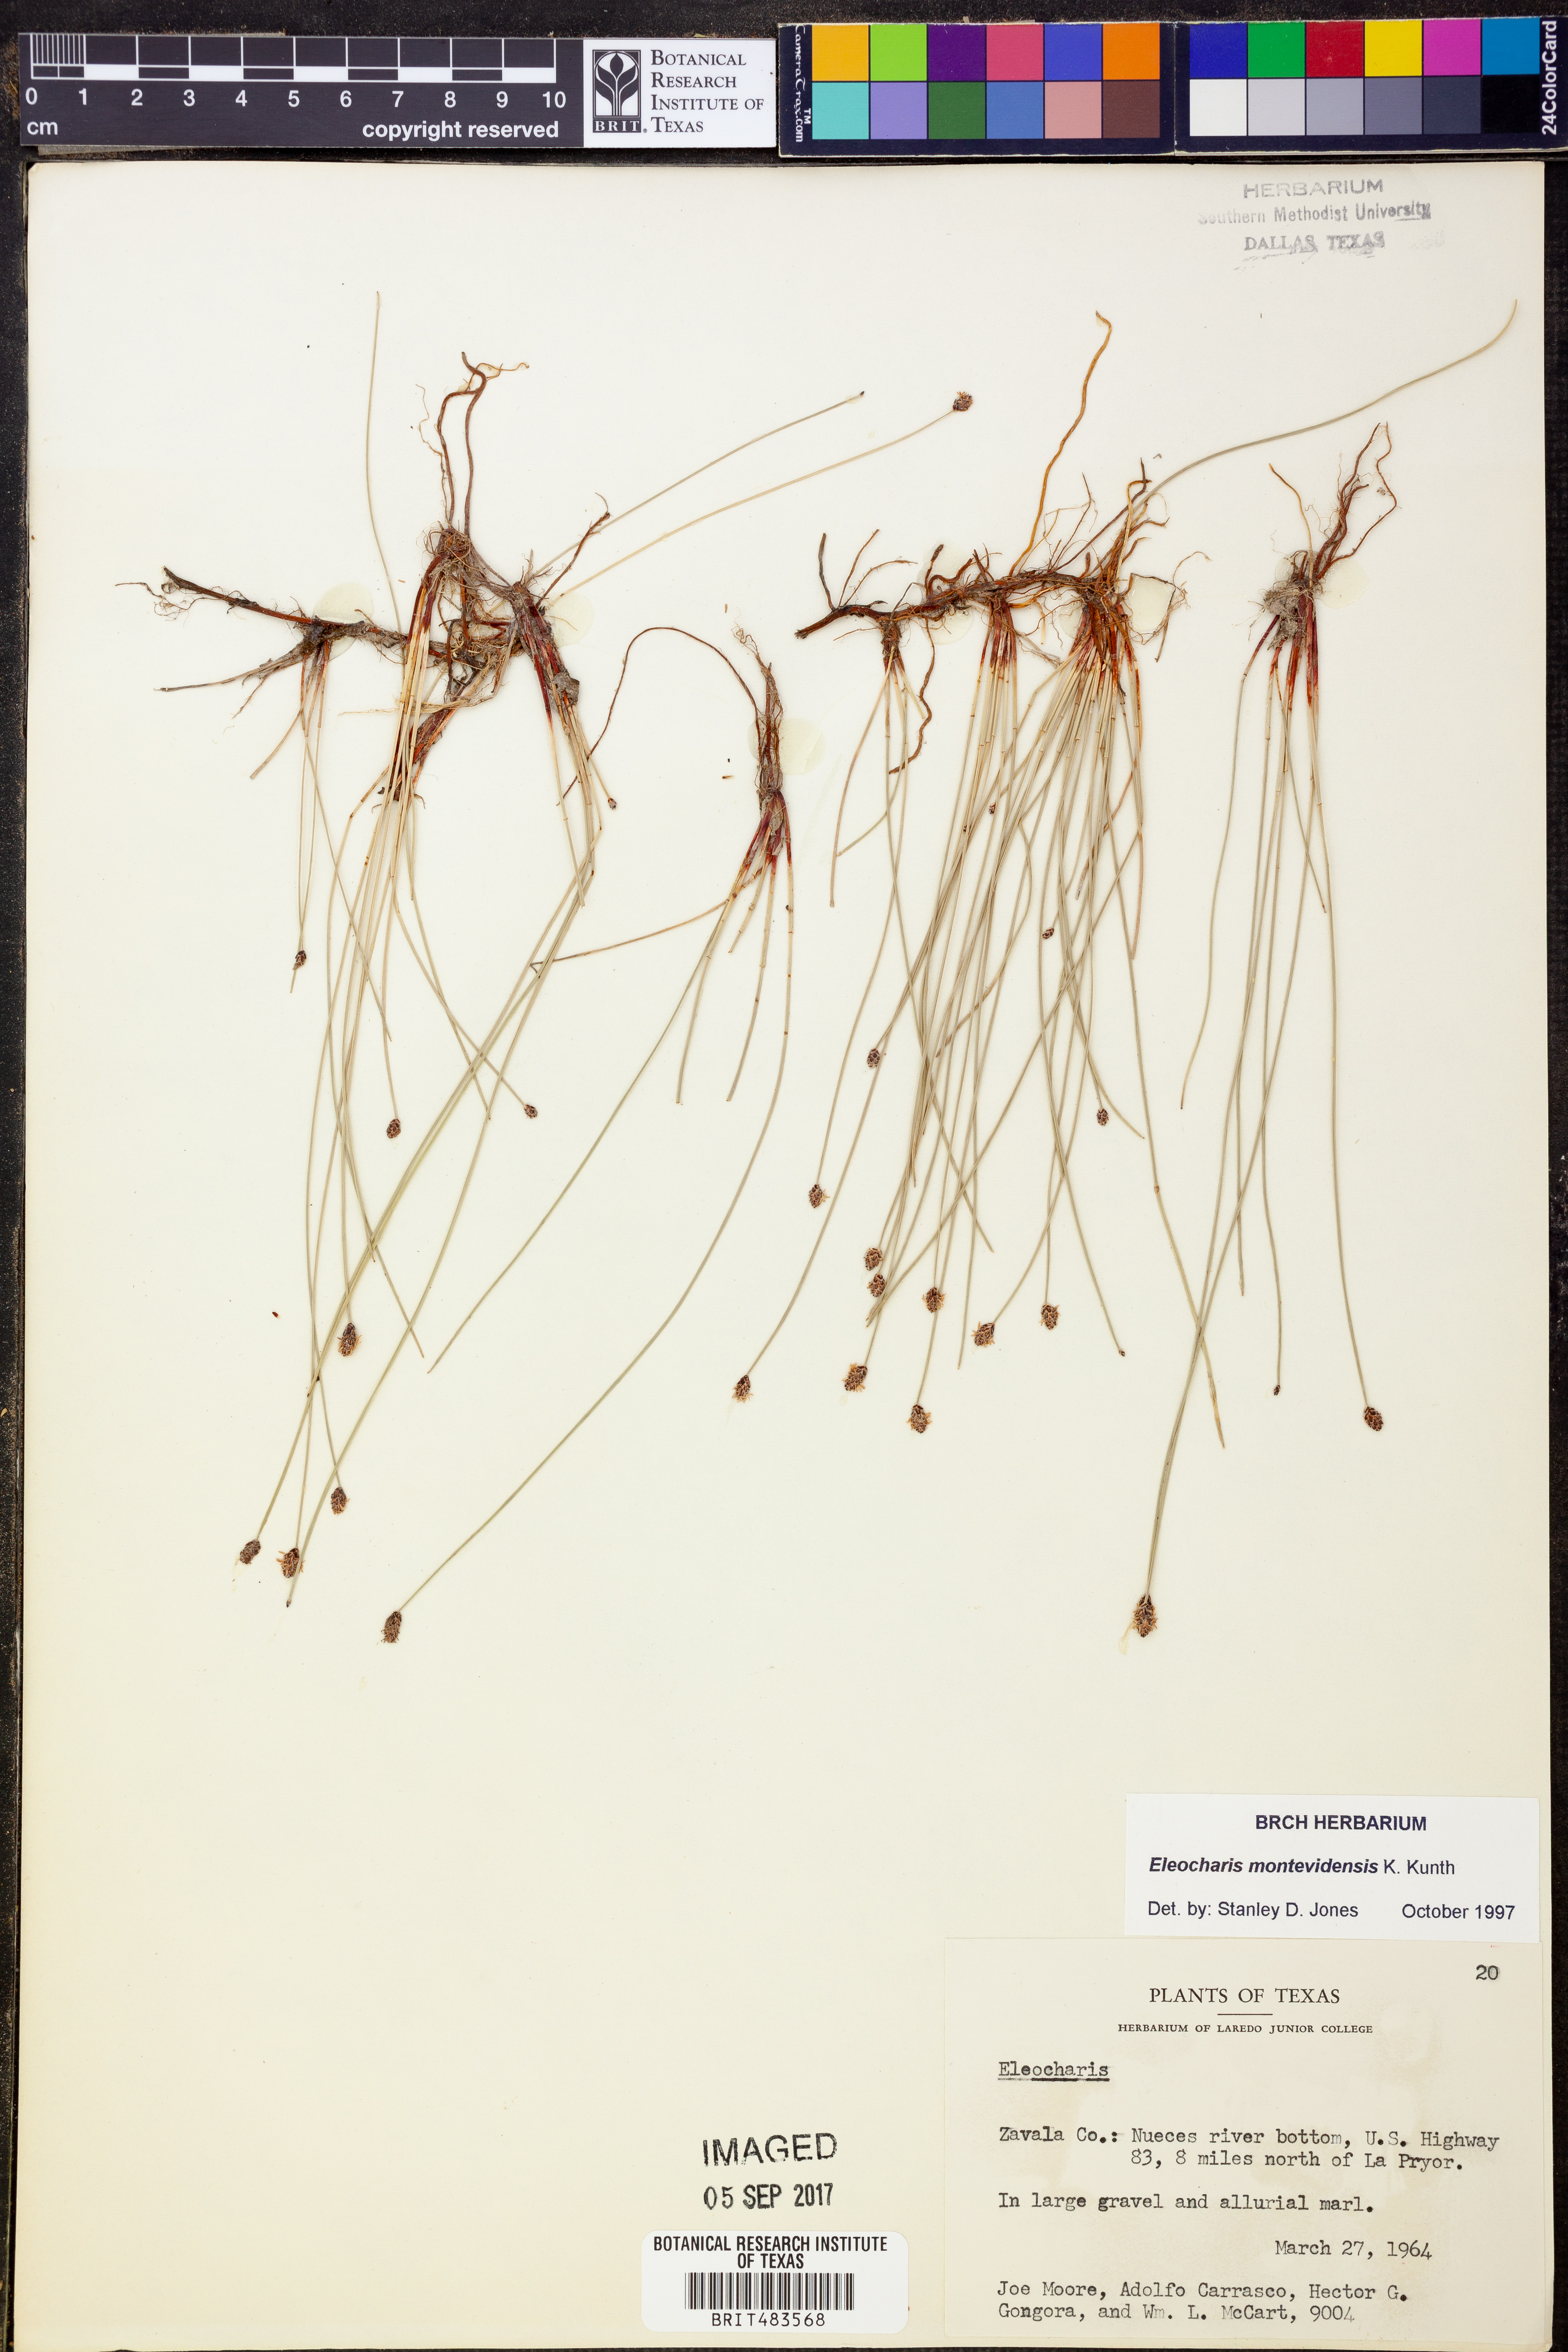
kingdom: Plantae
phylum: Tracheophyta
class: Liliopsida
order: Poales
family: Cyperaceae
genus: Eleocharis
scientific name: Eleocharis montevidensis
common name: Sand spike-rush
